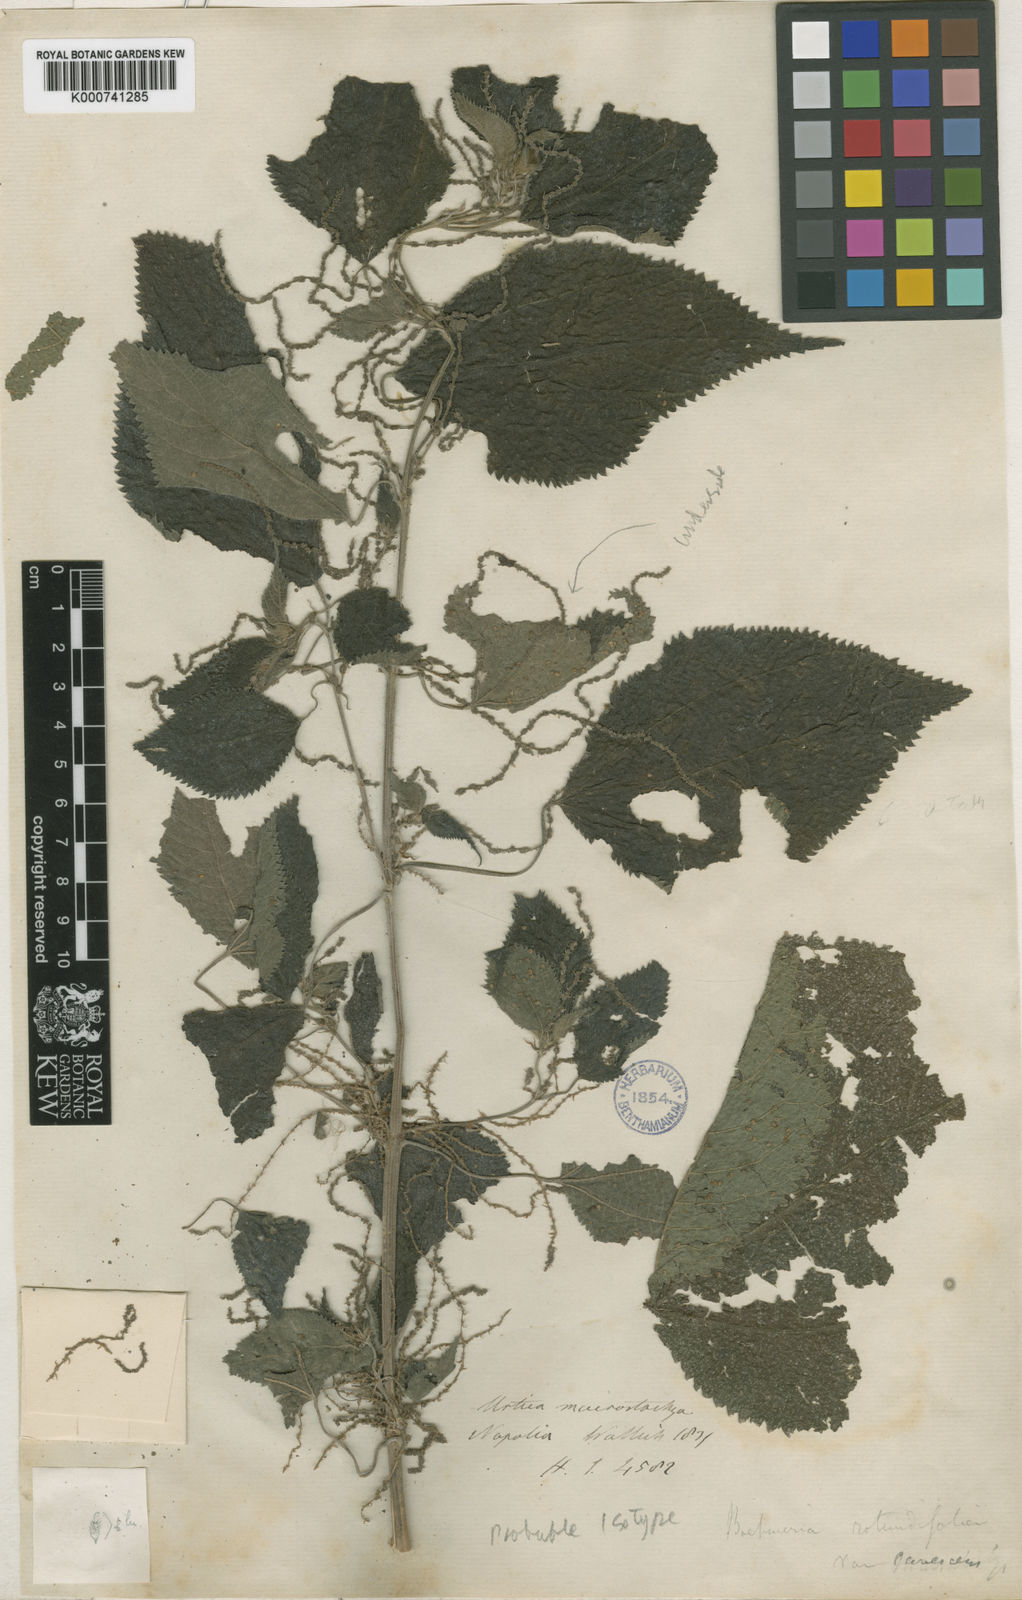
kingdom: Plantae
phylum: Tracheophyta
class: Magnoliopsida
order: Rosales
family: Urticaceae
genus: Boehmeria
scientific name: Boehmeria virgata
